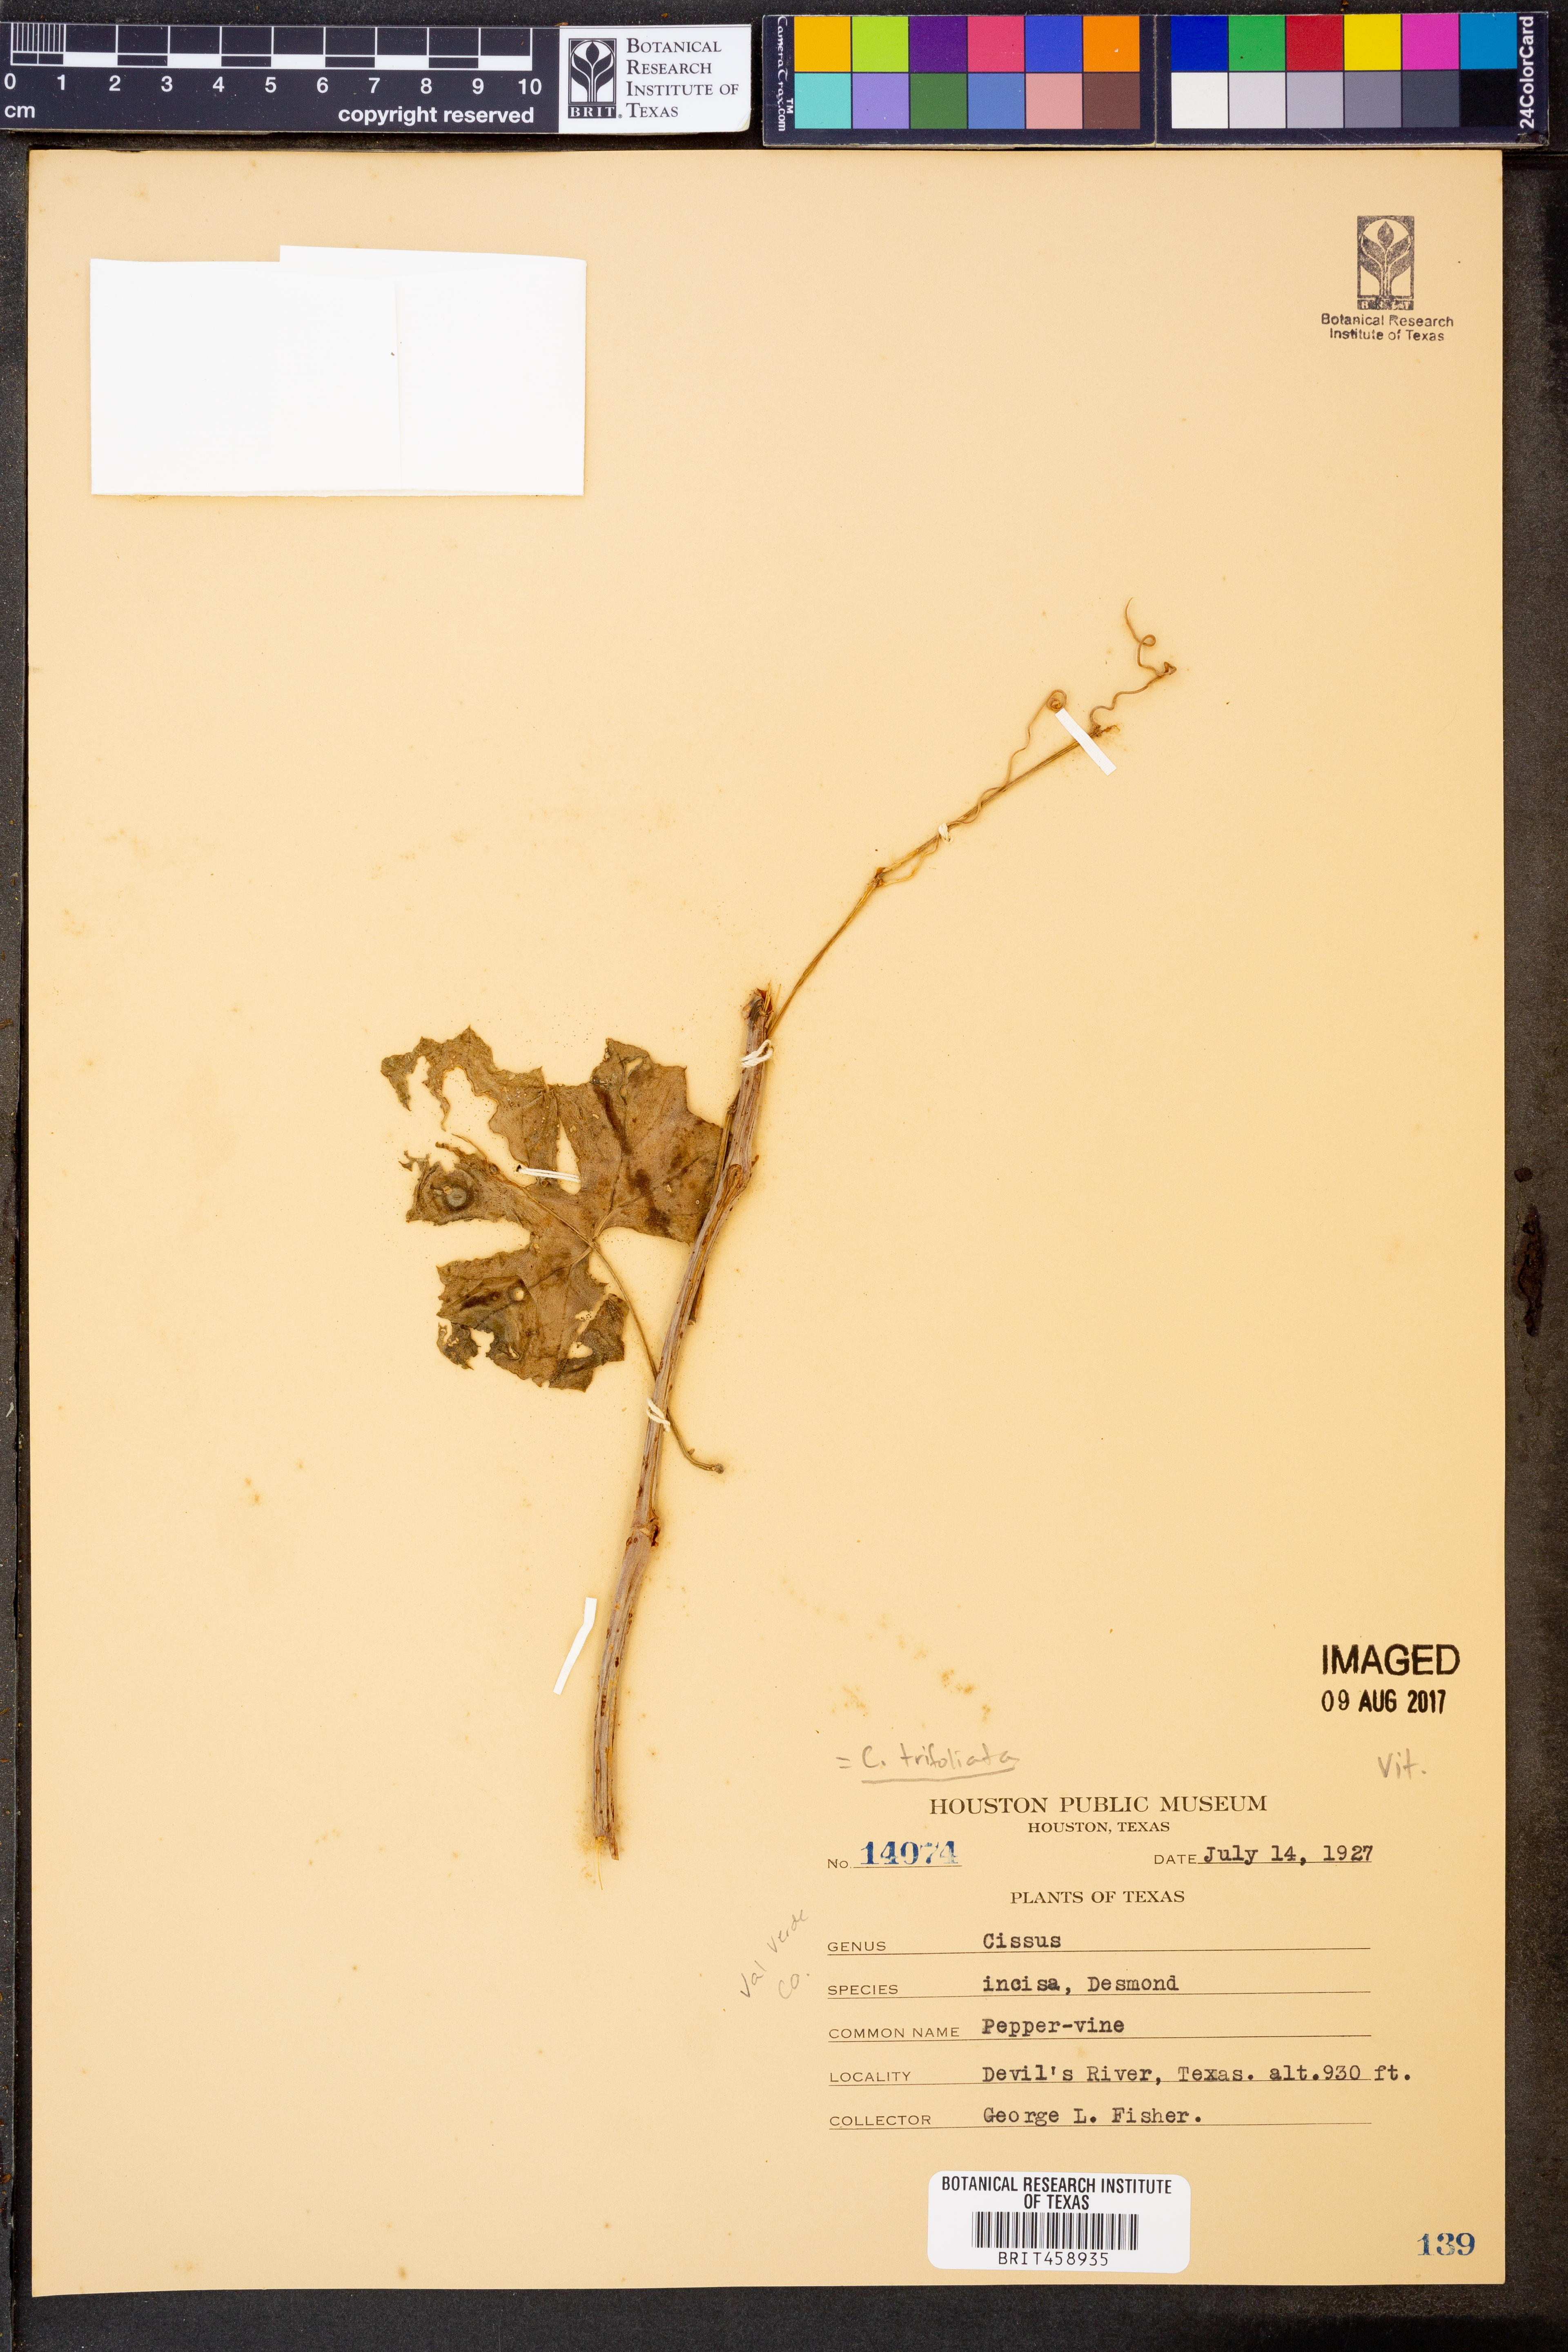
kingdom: Plantae
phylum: Tracheophyta
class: Magnoliopsida
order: Vitales
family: Vitaceae
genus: Cissus
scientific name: Cissus trifoliata
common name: Vine-sorrel
